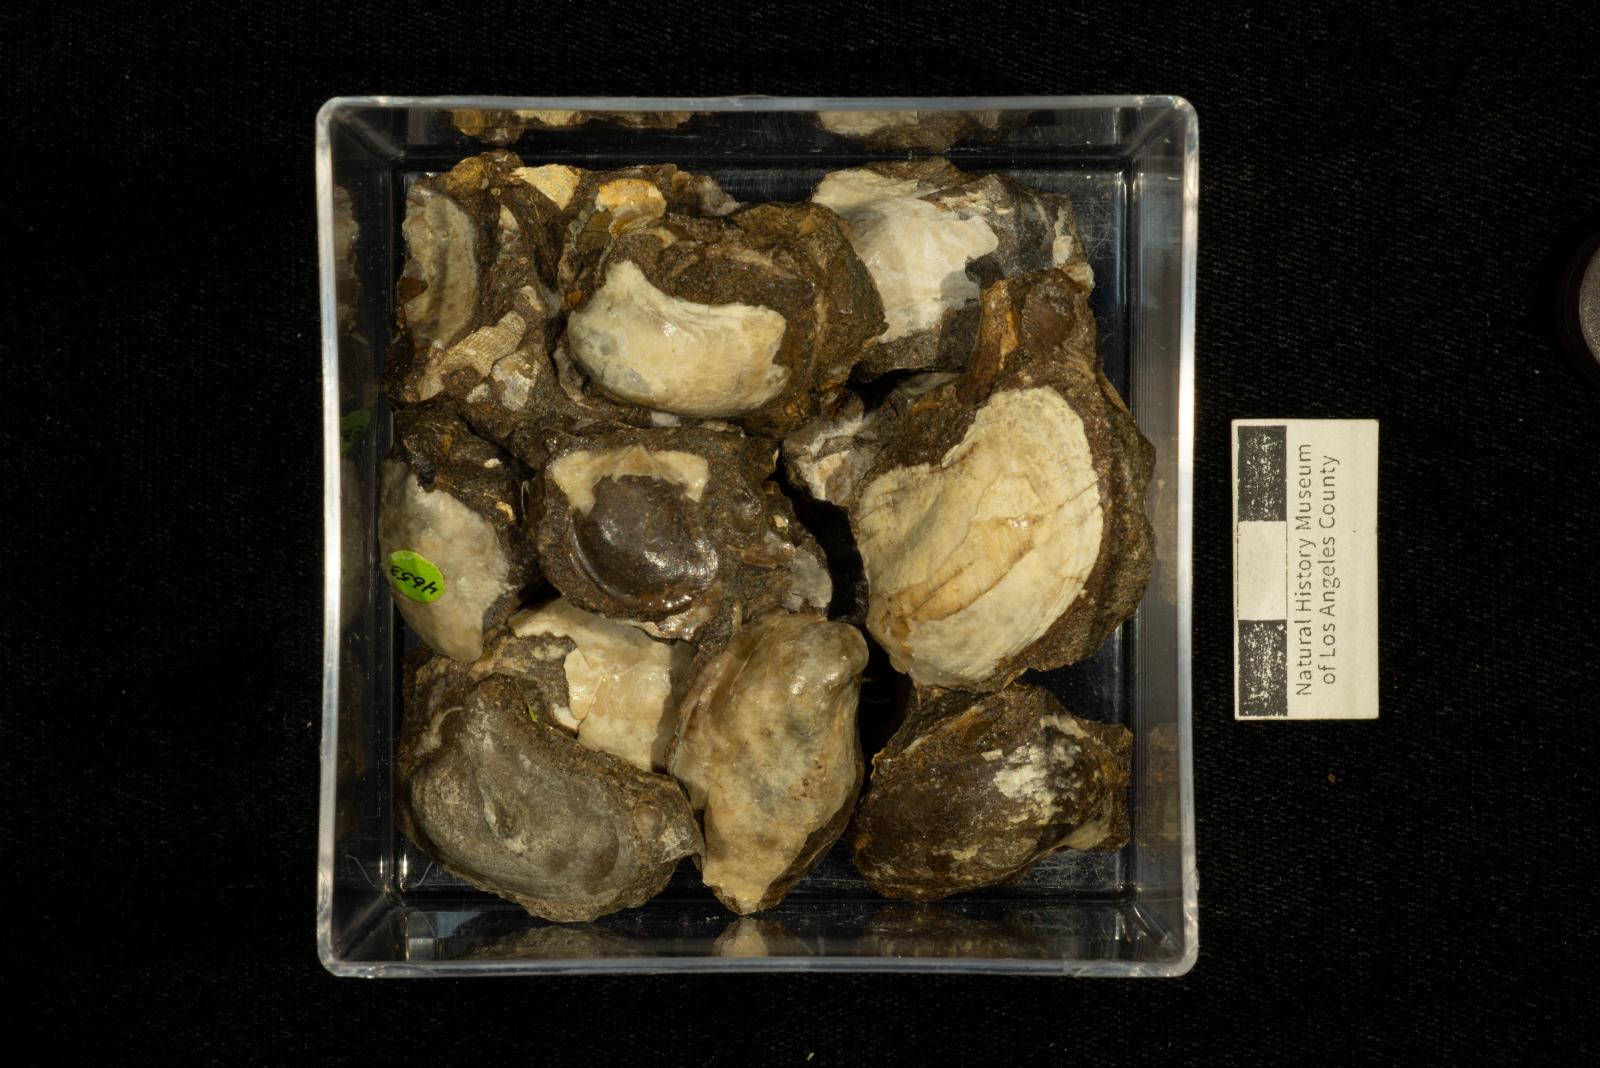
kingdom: Animalia
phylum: Mollusca
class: Bivalvia
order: Ostreida
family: Gryphaeidae
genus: Pycnodonte
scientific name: Pycnodonte
